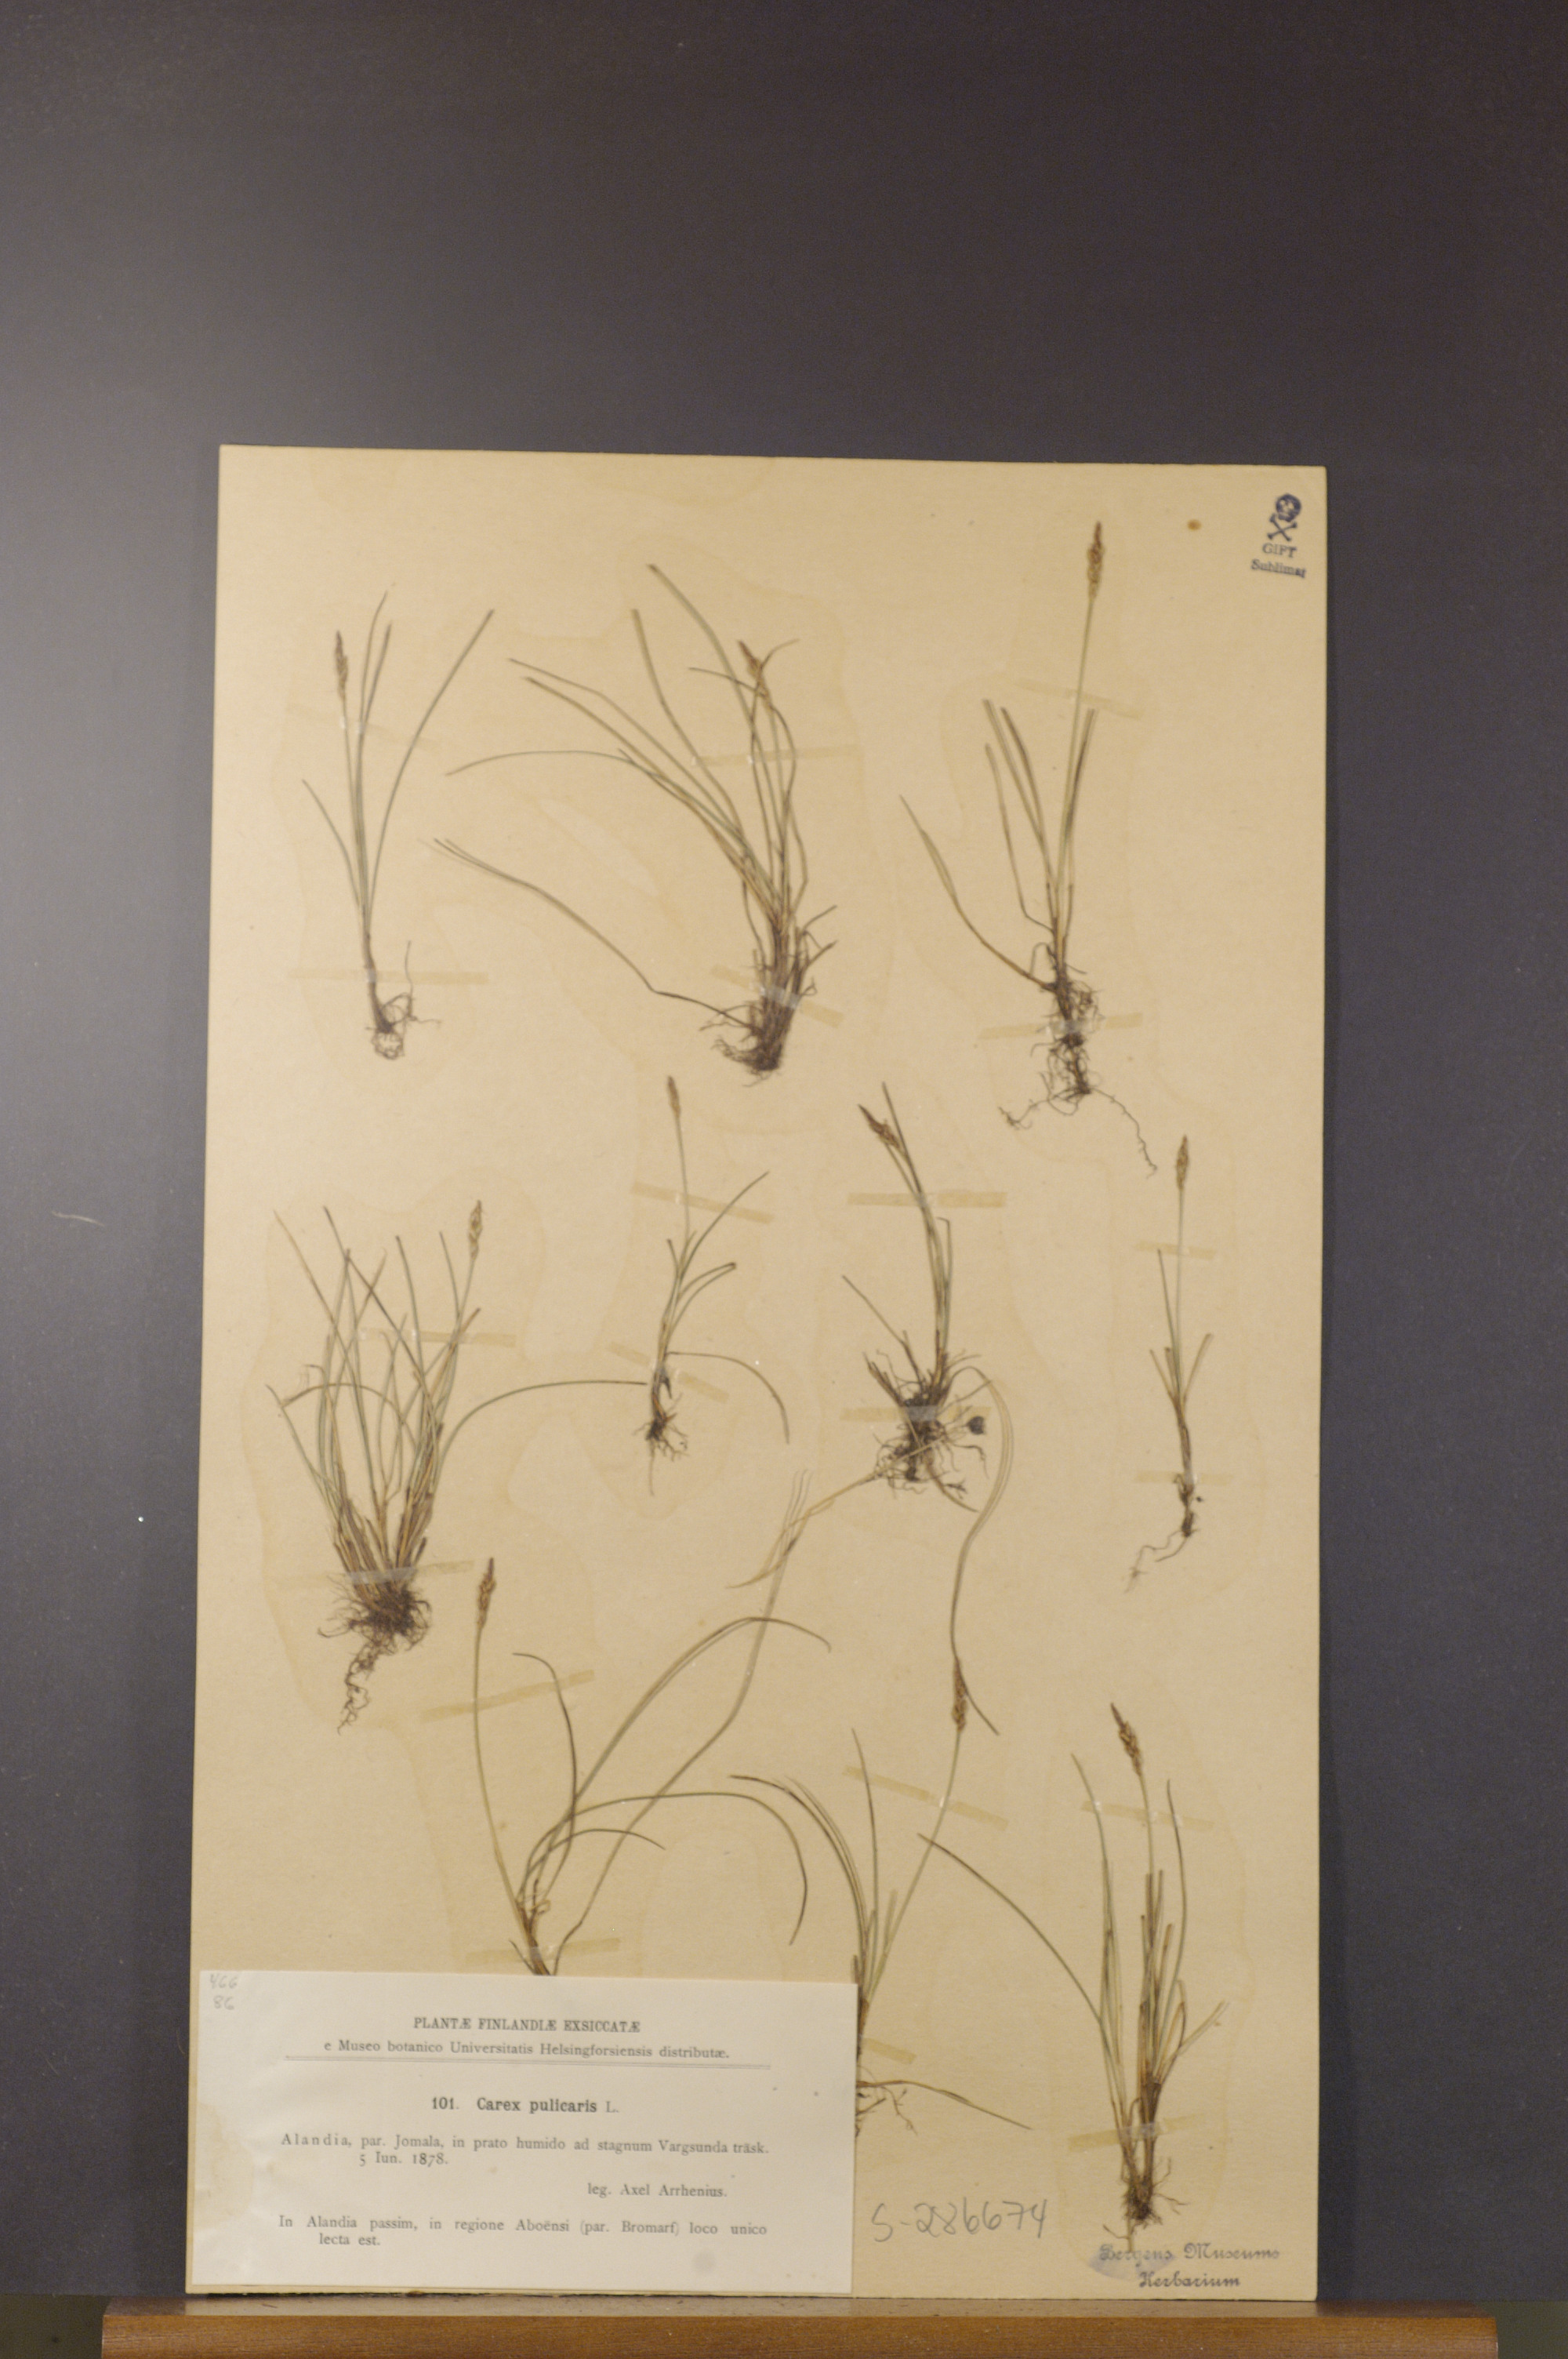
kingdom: Plantae
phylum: Tracheophyta
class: Liliopsida
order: Poales
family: Cyperaceae
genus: Carex
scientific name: Carex pulicaris
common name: Flea sedge
